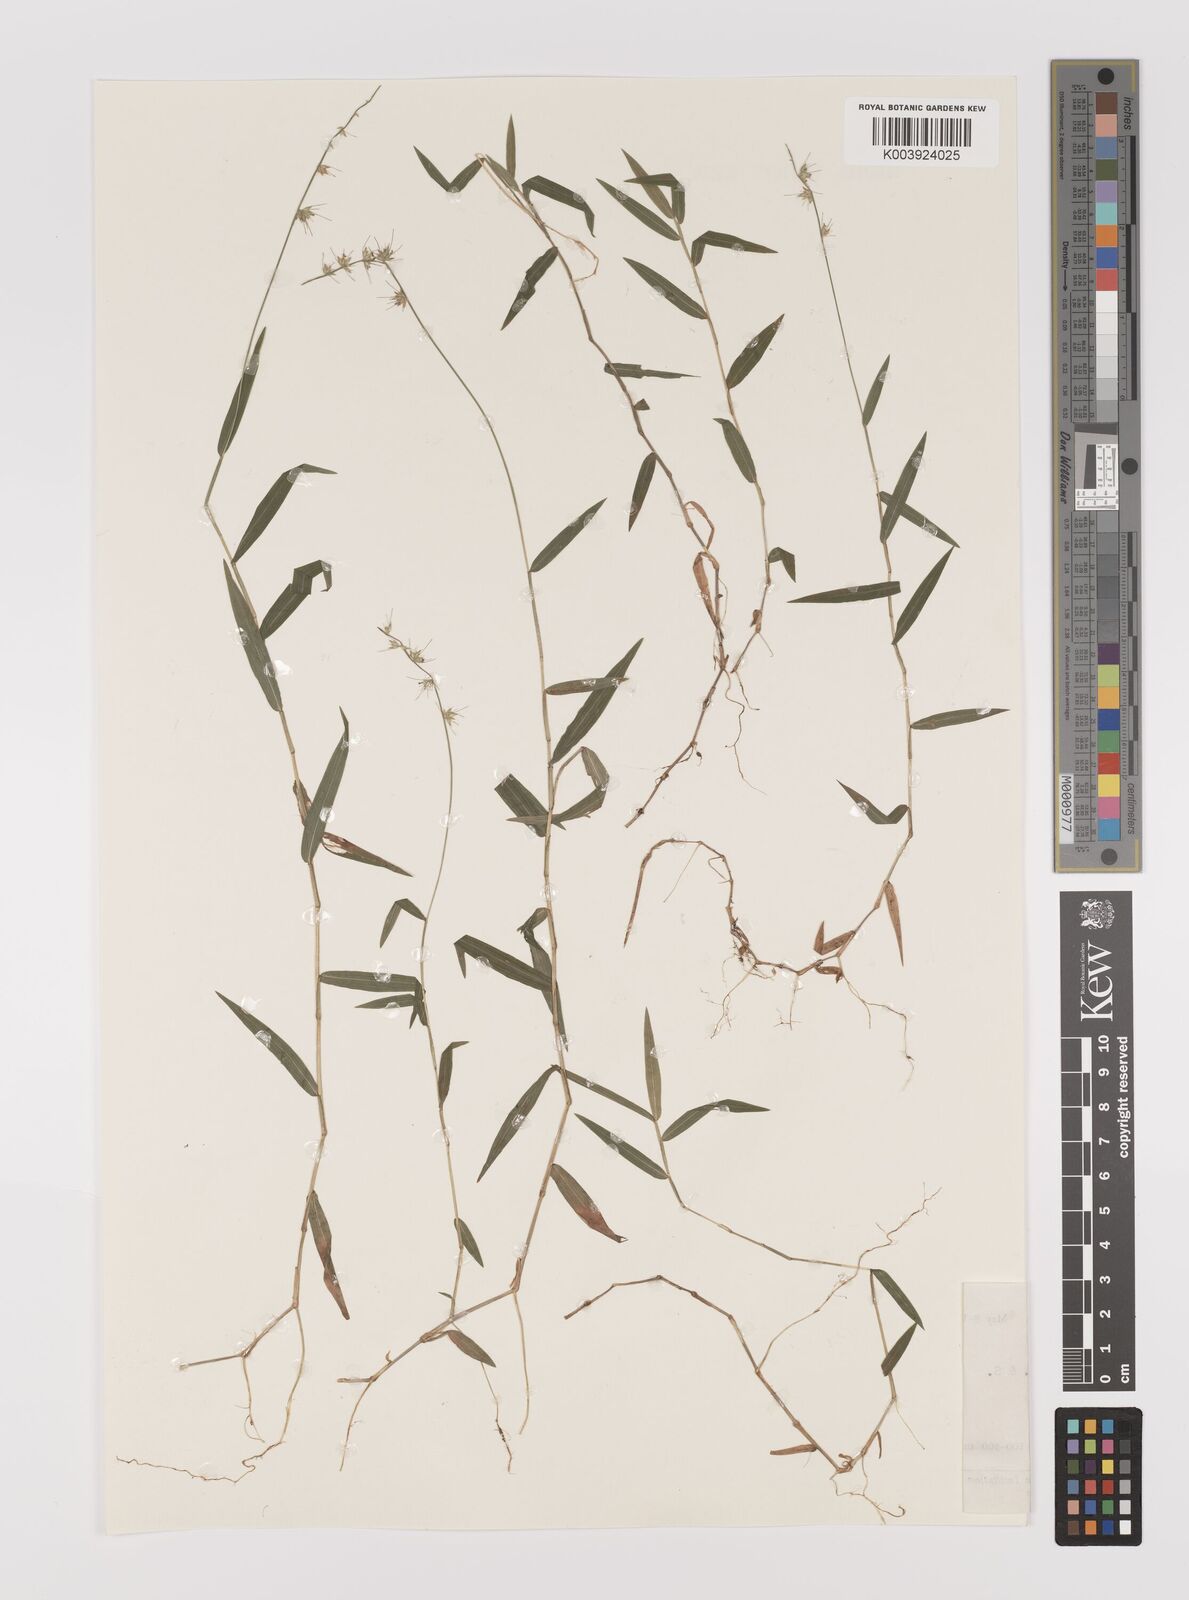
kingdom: Plantae
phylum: Tracheophyta
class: Liliopsida
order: Poales
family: Poaceae
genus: Oplismenus
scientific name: Oplismenus hirtellus
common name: Basketgrass
